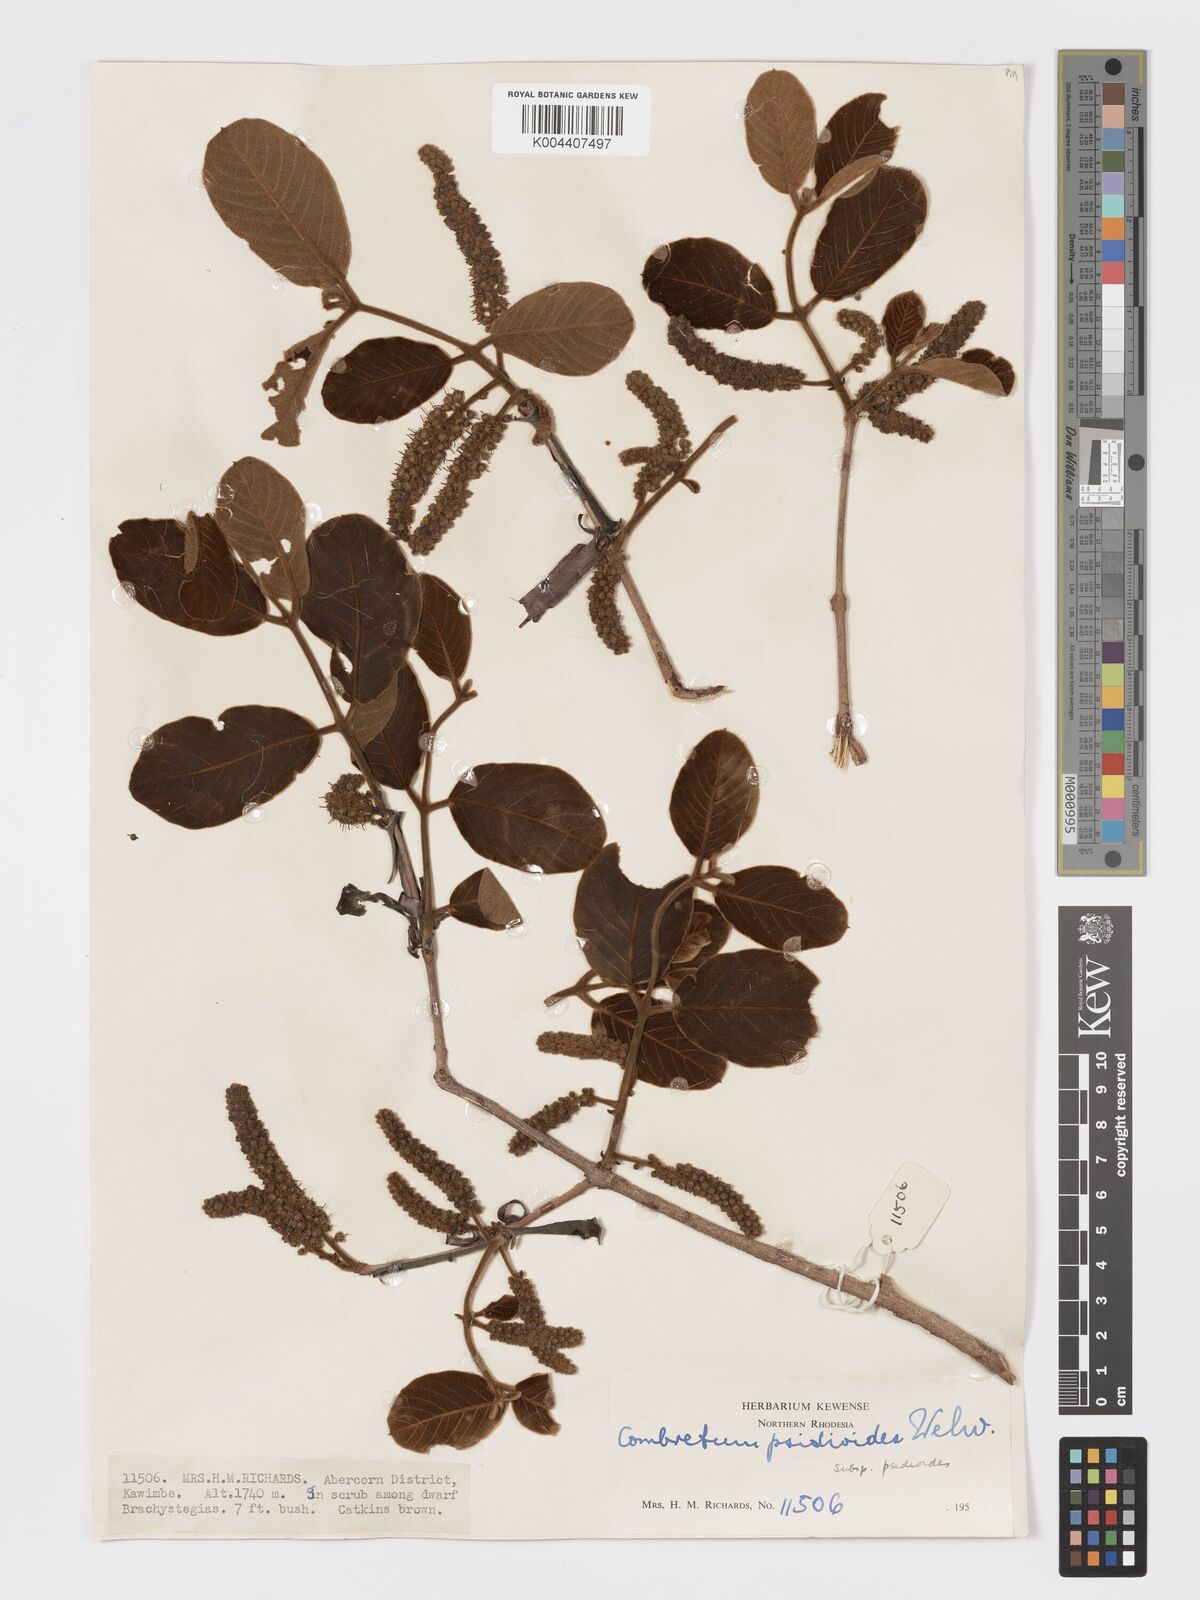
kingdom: Plantae
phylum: Tracheophyta
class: Magnoliopsida
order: Myrtales
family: Combretaceae
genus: Combretum
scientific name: Combretum psidioides
